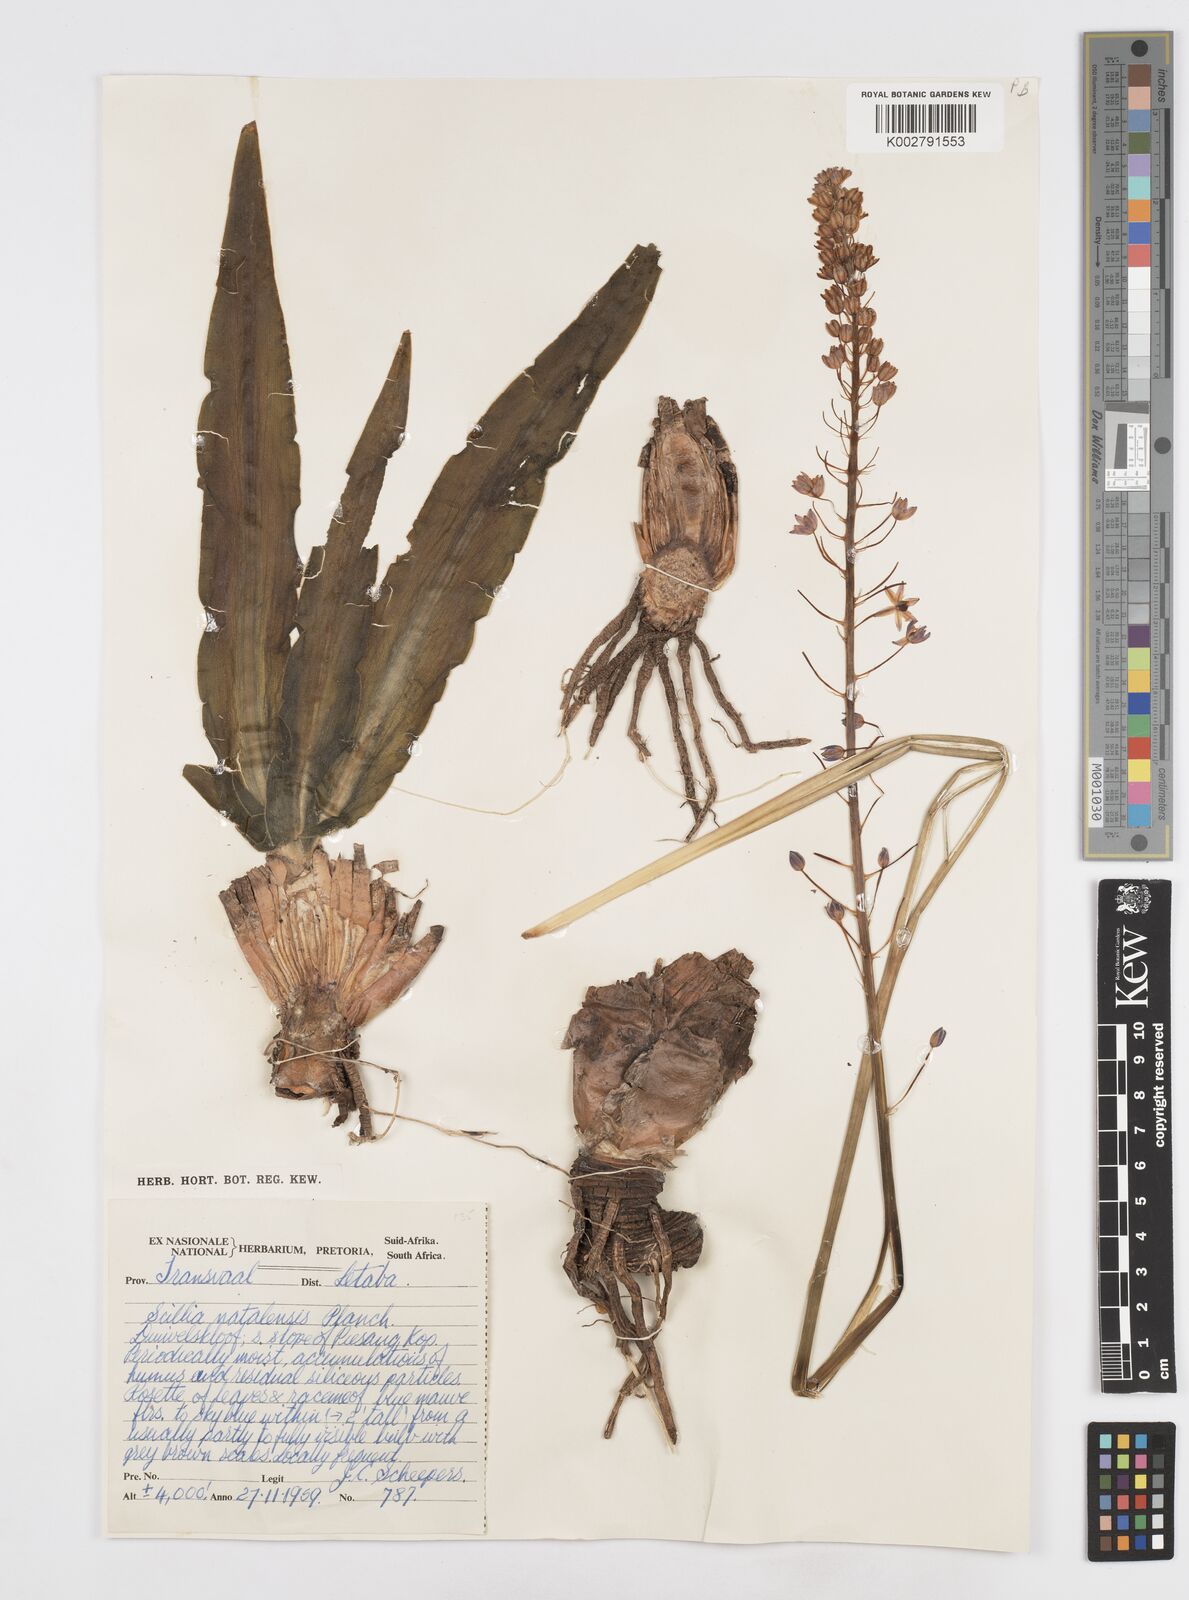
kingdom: Plantae
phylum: Tracheophyta
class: Liliopsida
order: Asparagales
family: Asparagaceae
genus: Merwilla
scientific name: Merwilla plumbea
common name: Blue-squill
